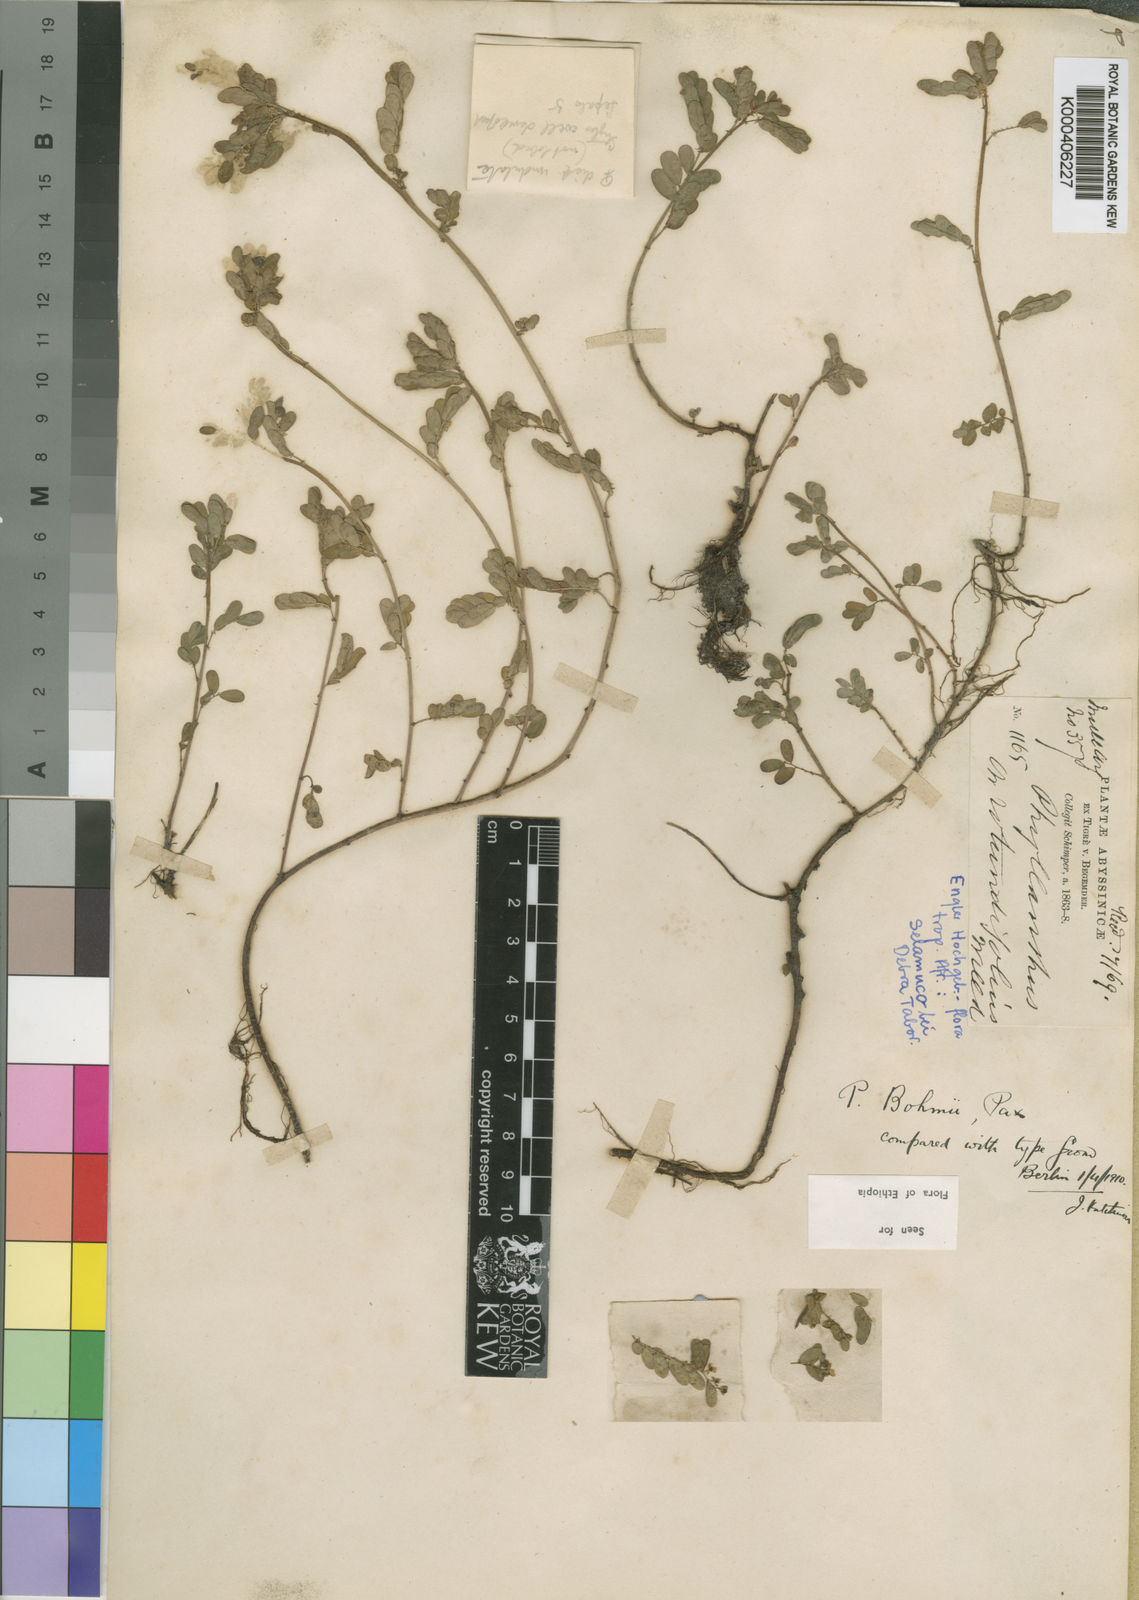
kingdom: Plantae
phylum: Tracheophyta
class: Magnoliopsida
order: Malpighiales
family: Phyllanthaceae
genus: Phyllanthus
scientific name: Phyllanthus boehmii
